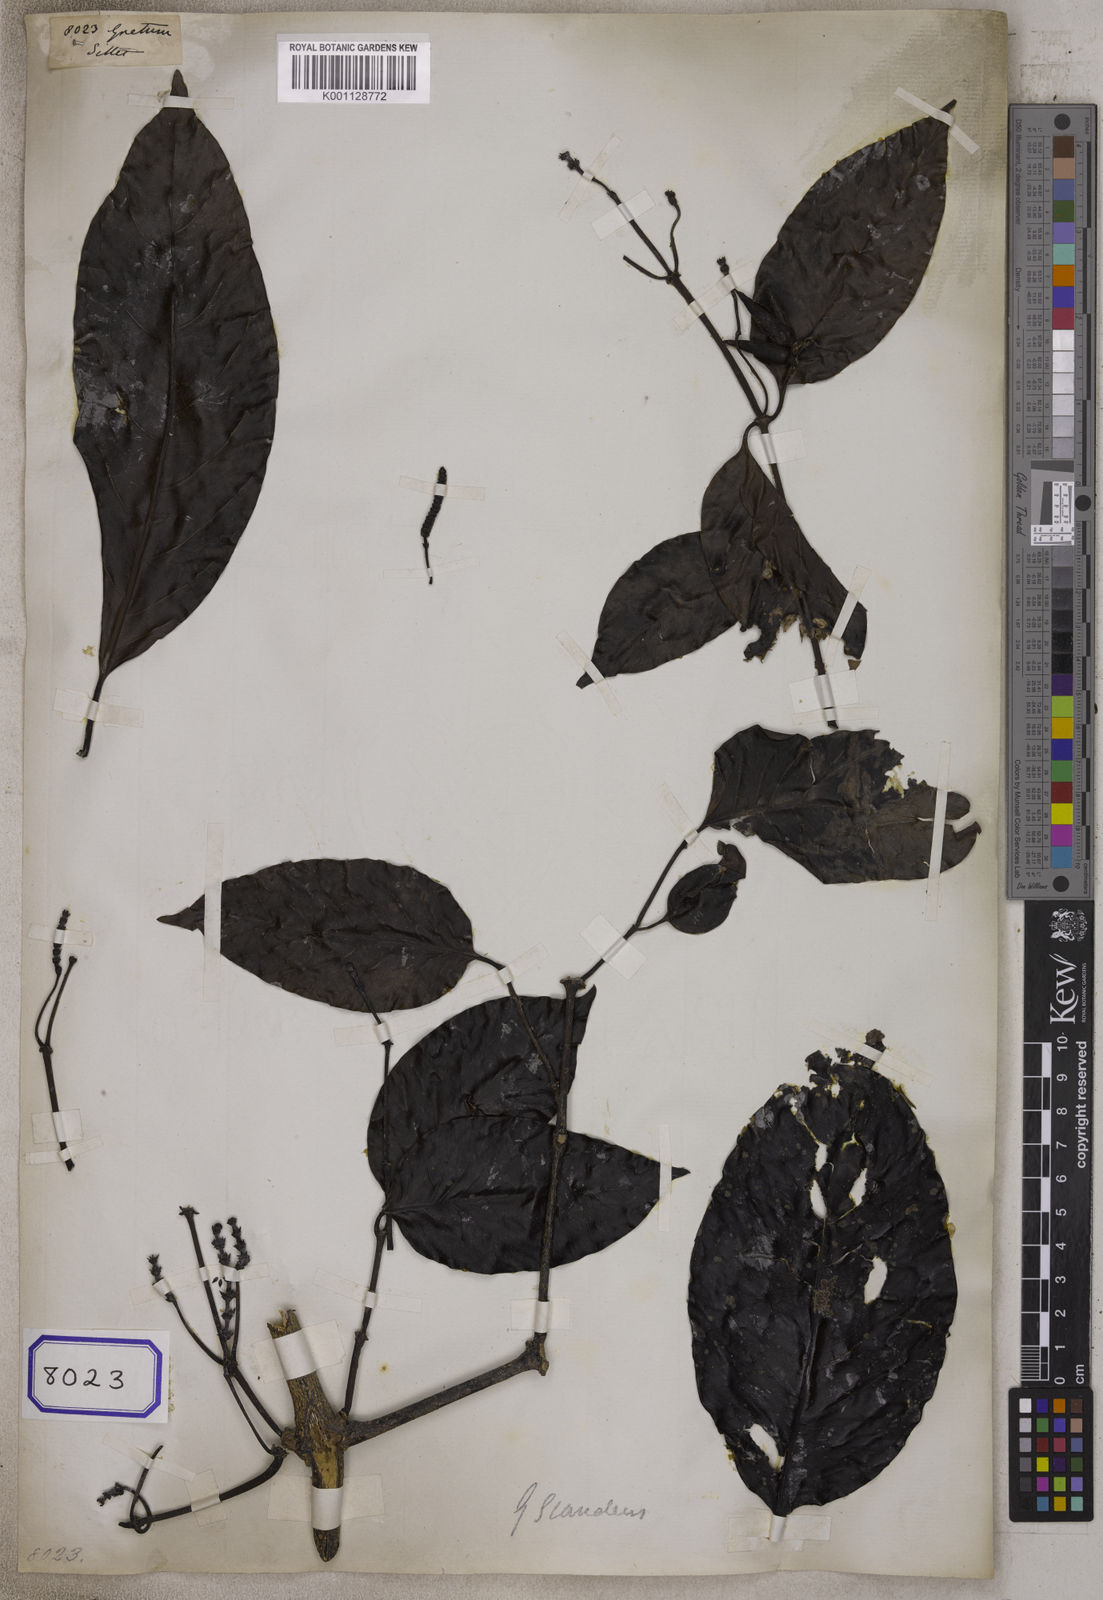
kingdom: Plantae
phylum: Tracheophyta
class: Gnetopsida
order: Gnetales
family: Gnetaceae
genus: Gnetum
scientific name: Gnetum
